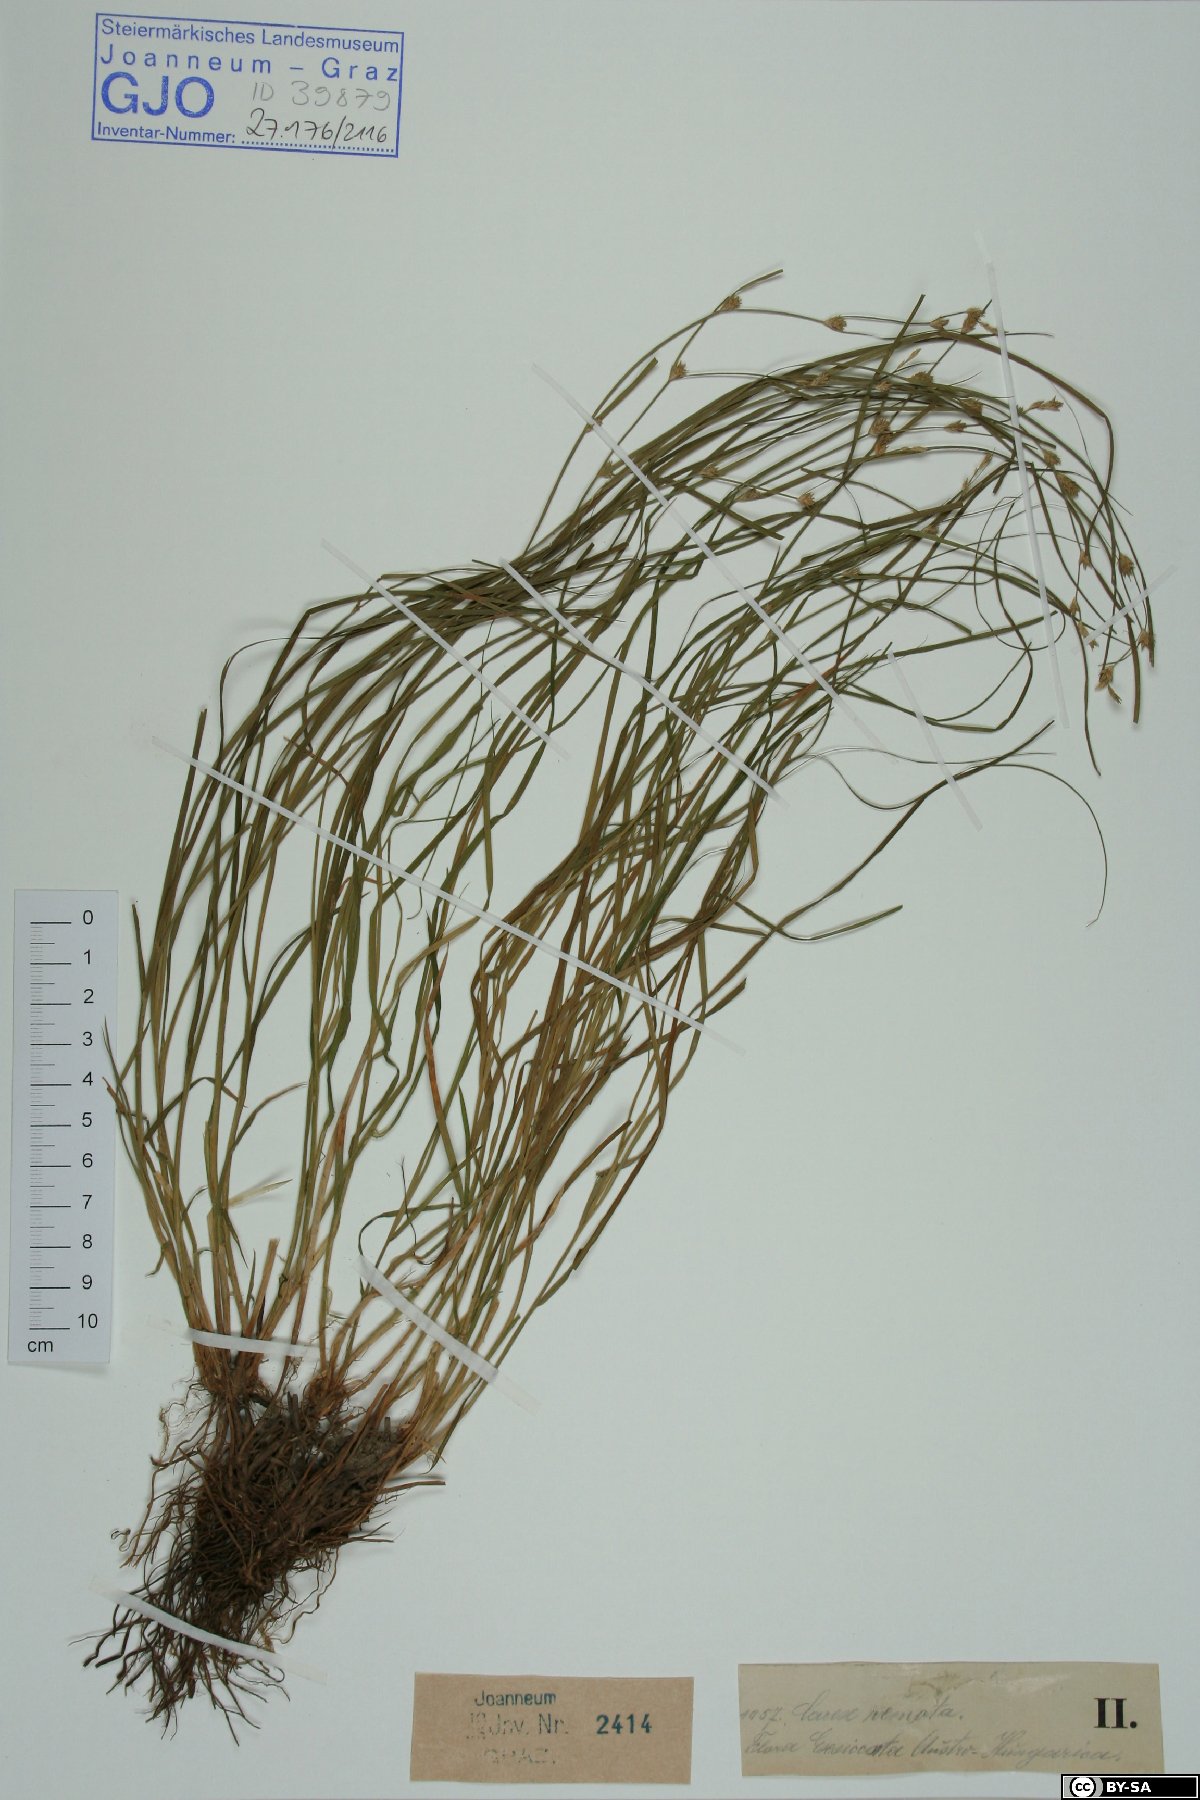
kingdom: Plantae
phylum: Tracheophyta
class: Liliopsida
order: Poales
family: Cyperaceae
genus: Carex
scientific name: Carex remota
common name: Remote sedge
